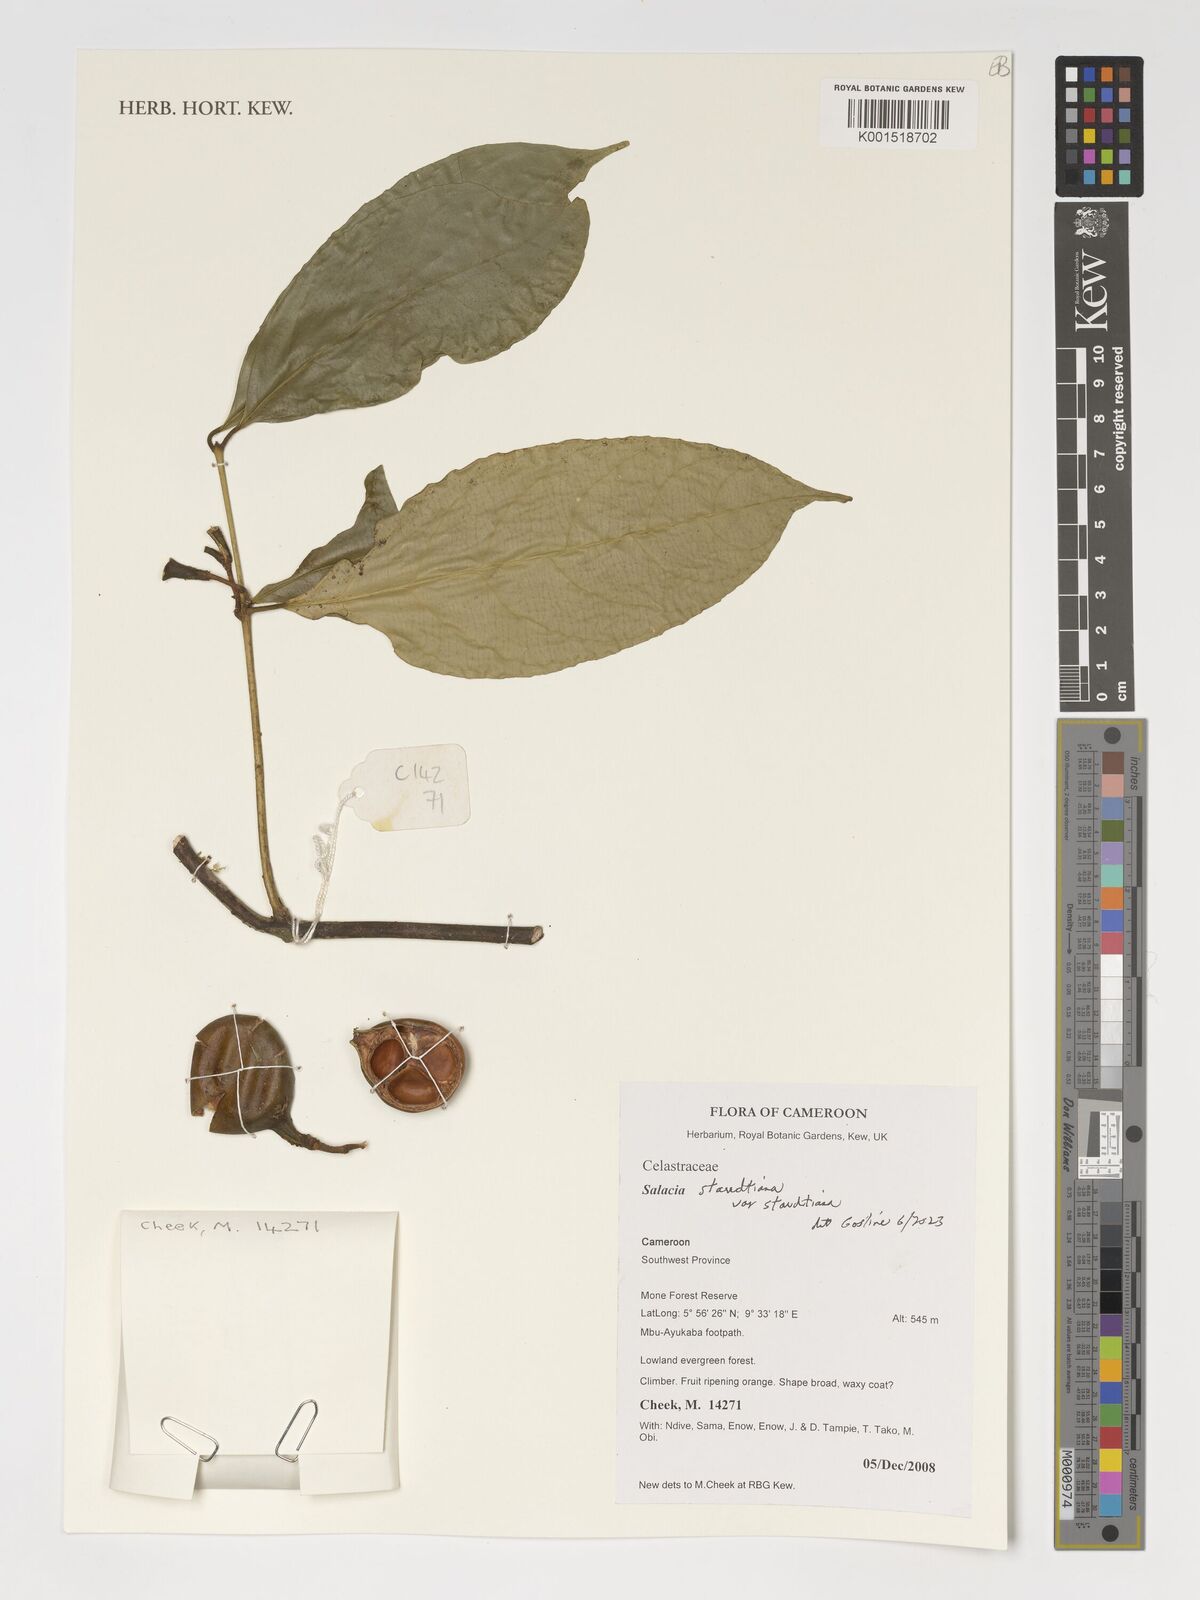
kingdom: Plantae
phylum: Tracheophyta
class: Magnoliopsida
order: Celastrales
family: Celastraceae
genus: Salacia
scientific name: Salacia staudtiana
